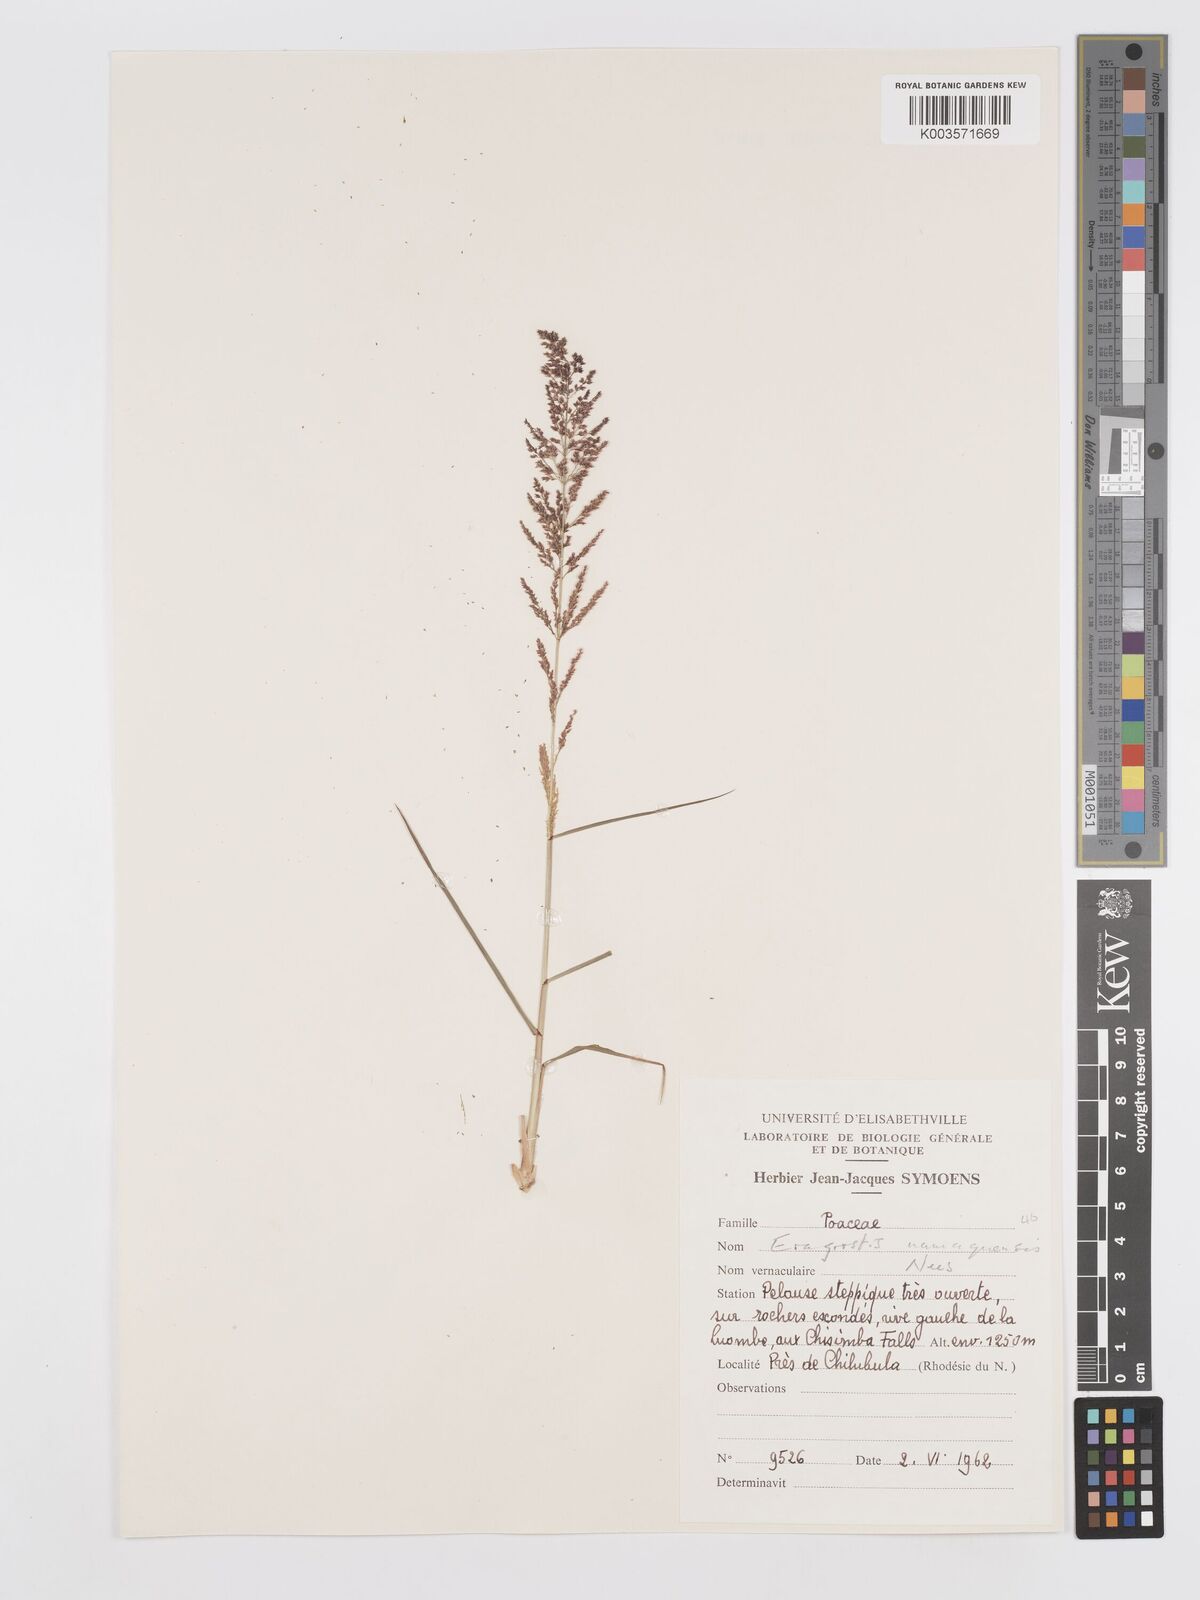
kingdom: Plantae
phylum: Tracheophyta
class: Liliopsida
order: Poales
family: Poaceae
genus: Eragrostis
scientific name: Eragrostis japonica
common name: Pond lovegrass
